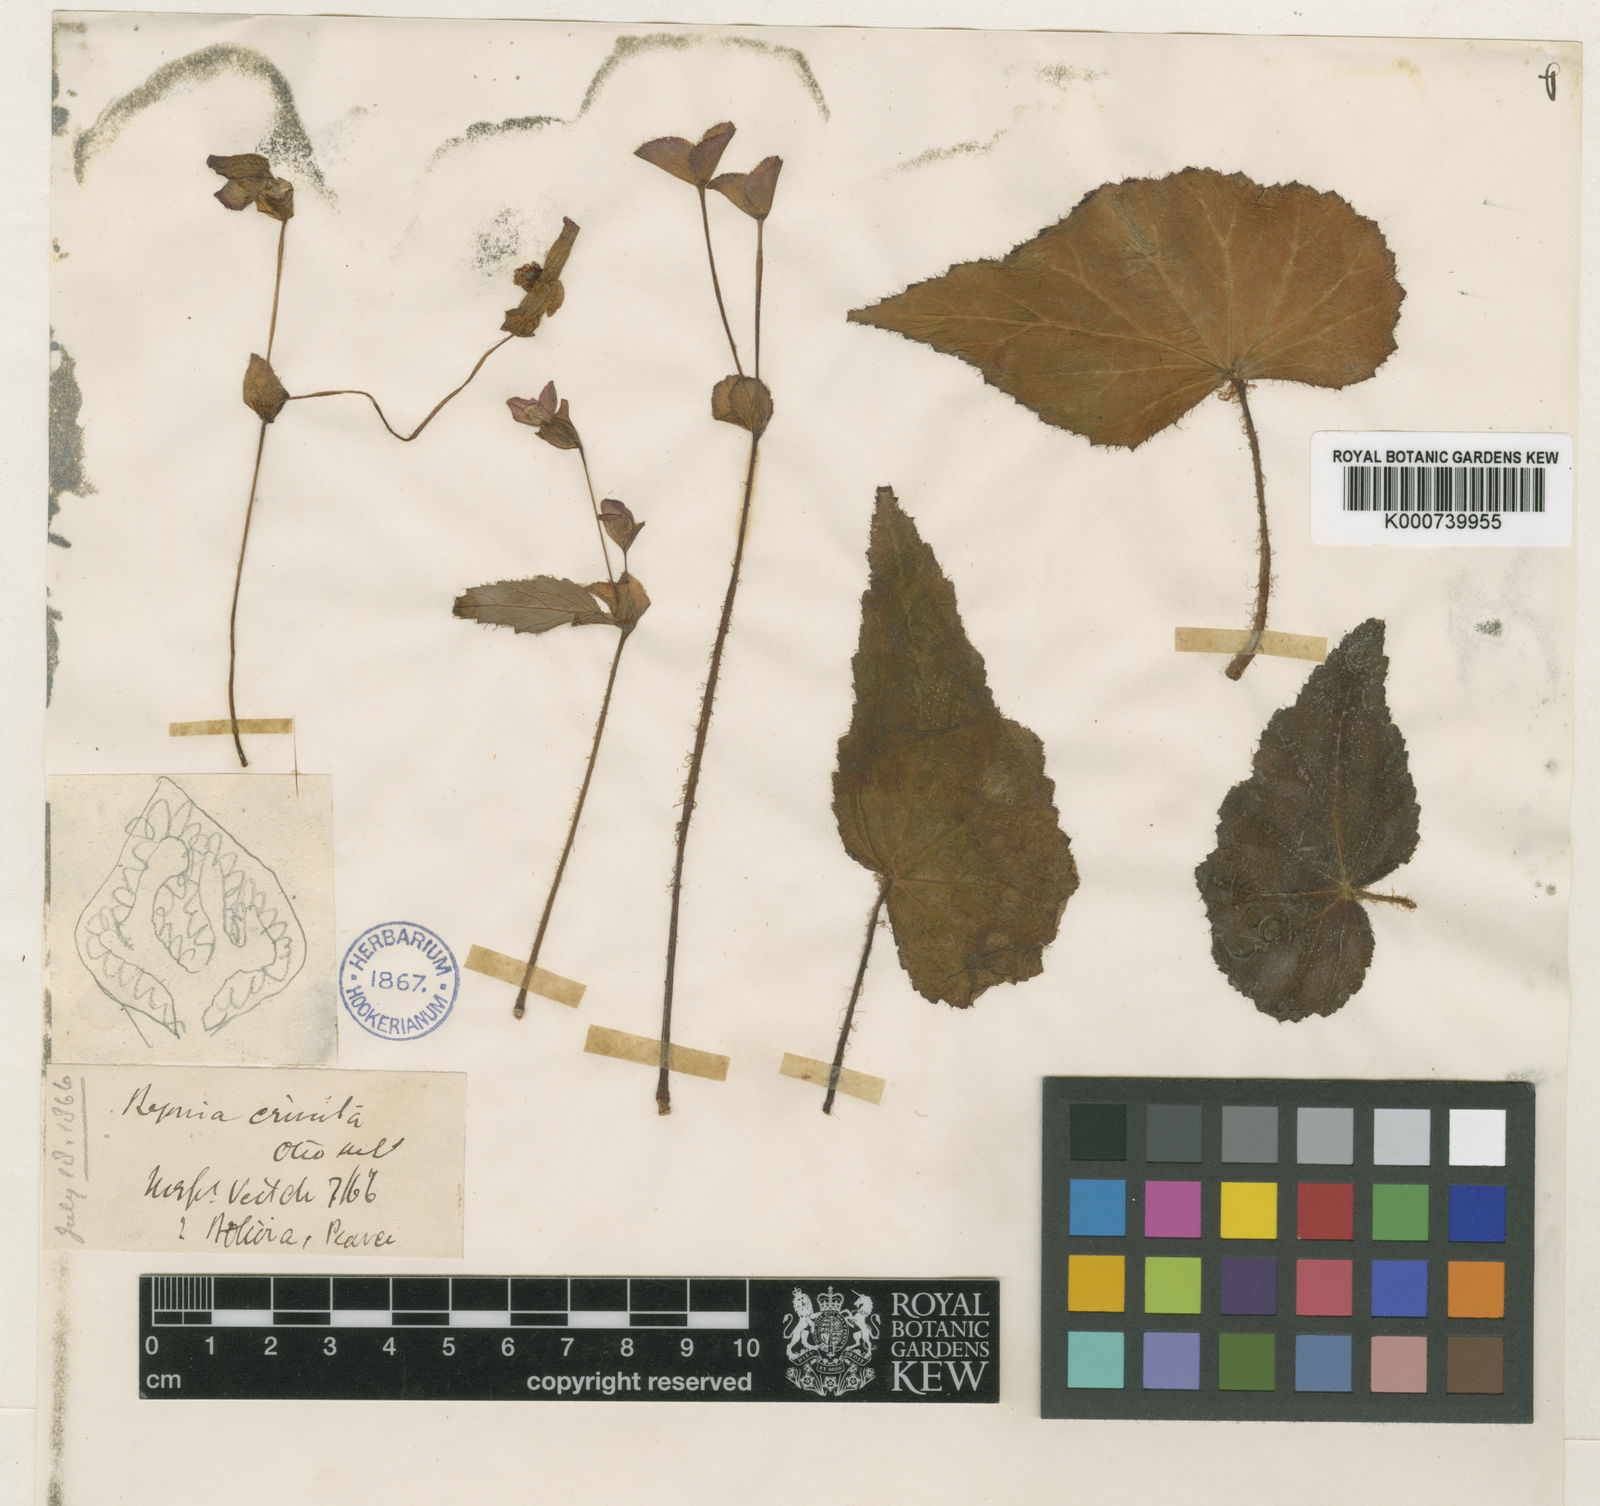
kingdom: Plantae
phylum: Tracheophyta
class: Magnoliopsida
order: Cucurbitales
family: Begoniaceae
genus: Begonia
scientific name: Begonia micranthera
